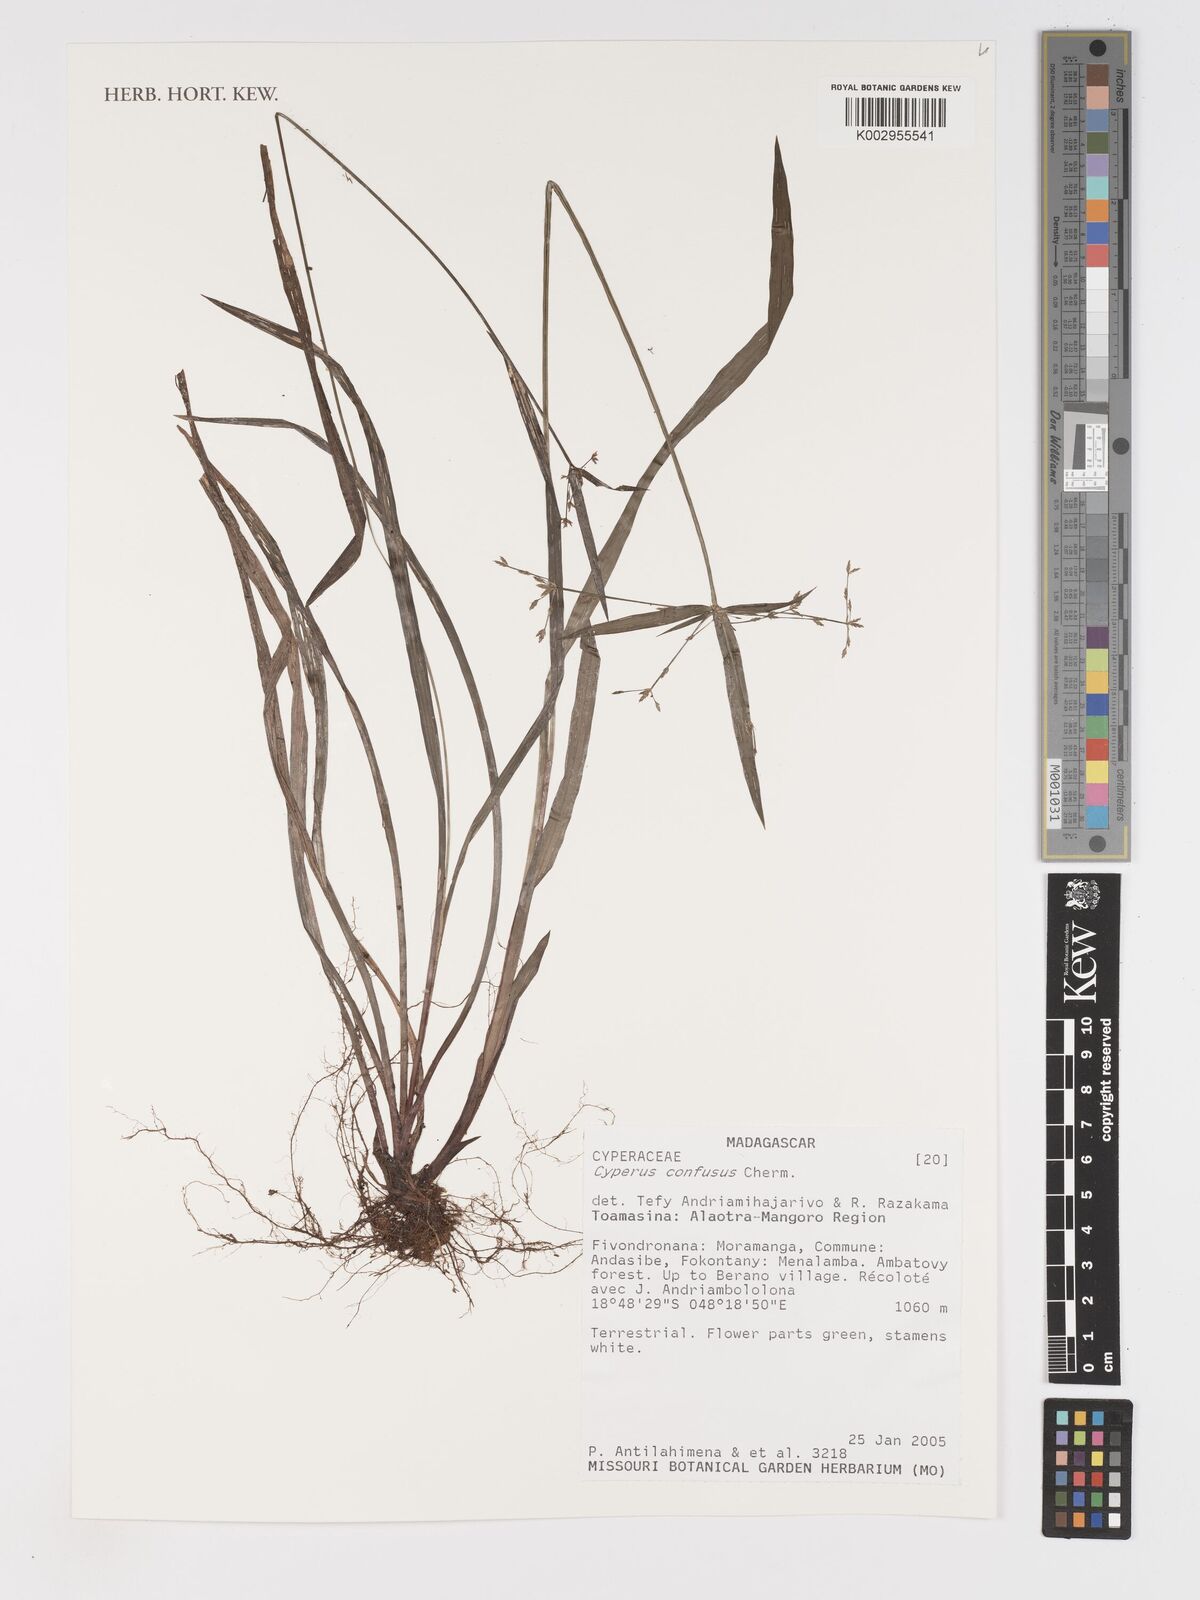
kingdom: Plantae
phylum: Tracheophyta
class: Liliopsida
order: Poales
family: Cyperaceae
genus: Cyperus
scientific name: Cyperus longifolius
